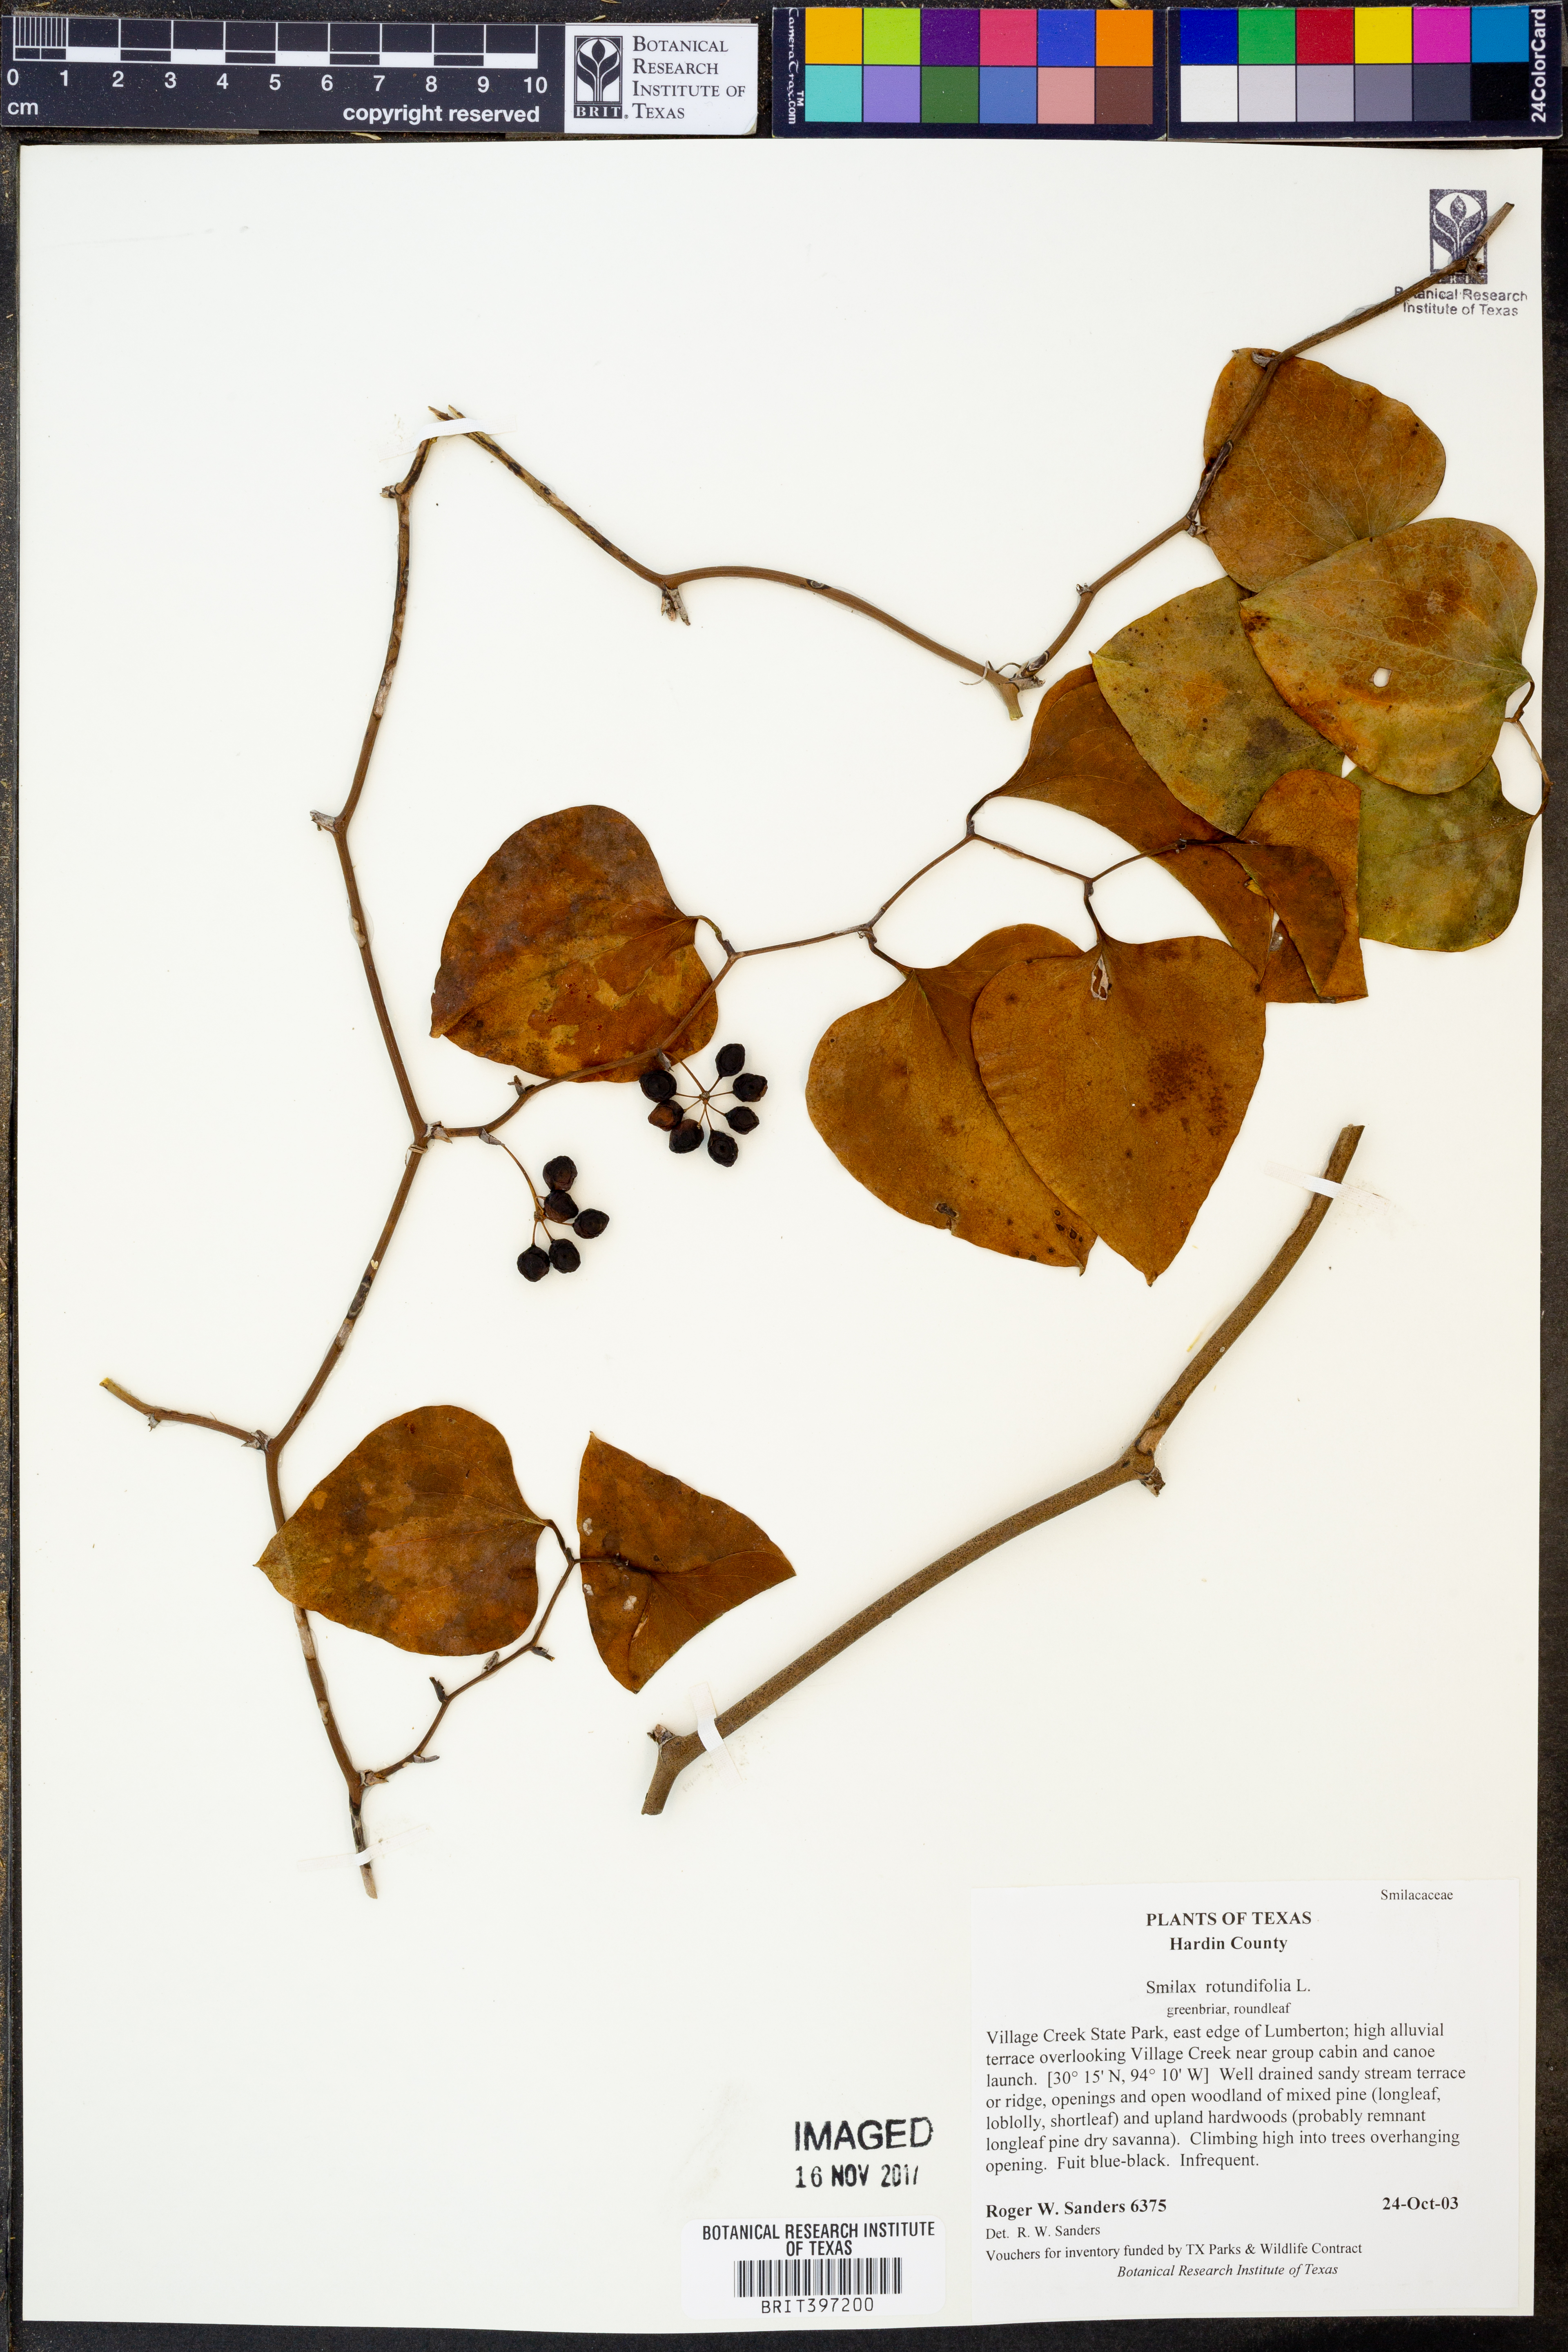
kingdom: Plantae
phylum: Tracheophyta
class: Liliopsida
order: Liliales
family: Smilacaceae
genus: Smilax
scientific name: Smilax rotundifolia
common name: Bullbriar
